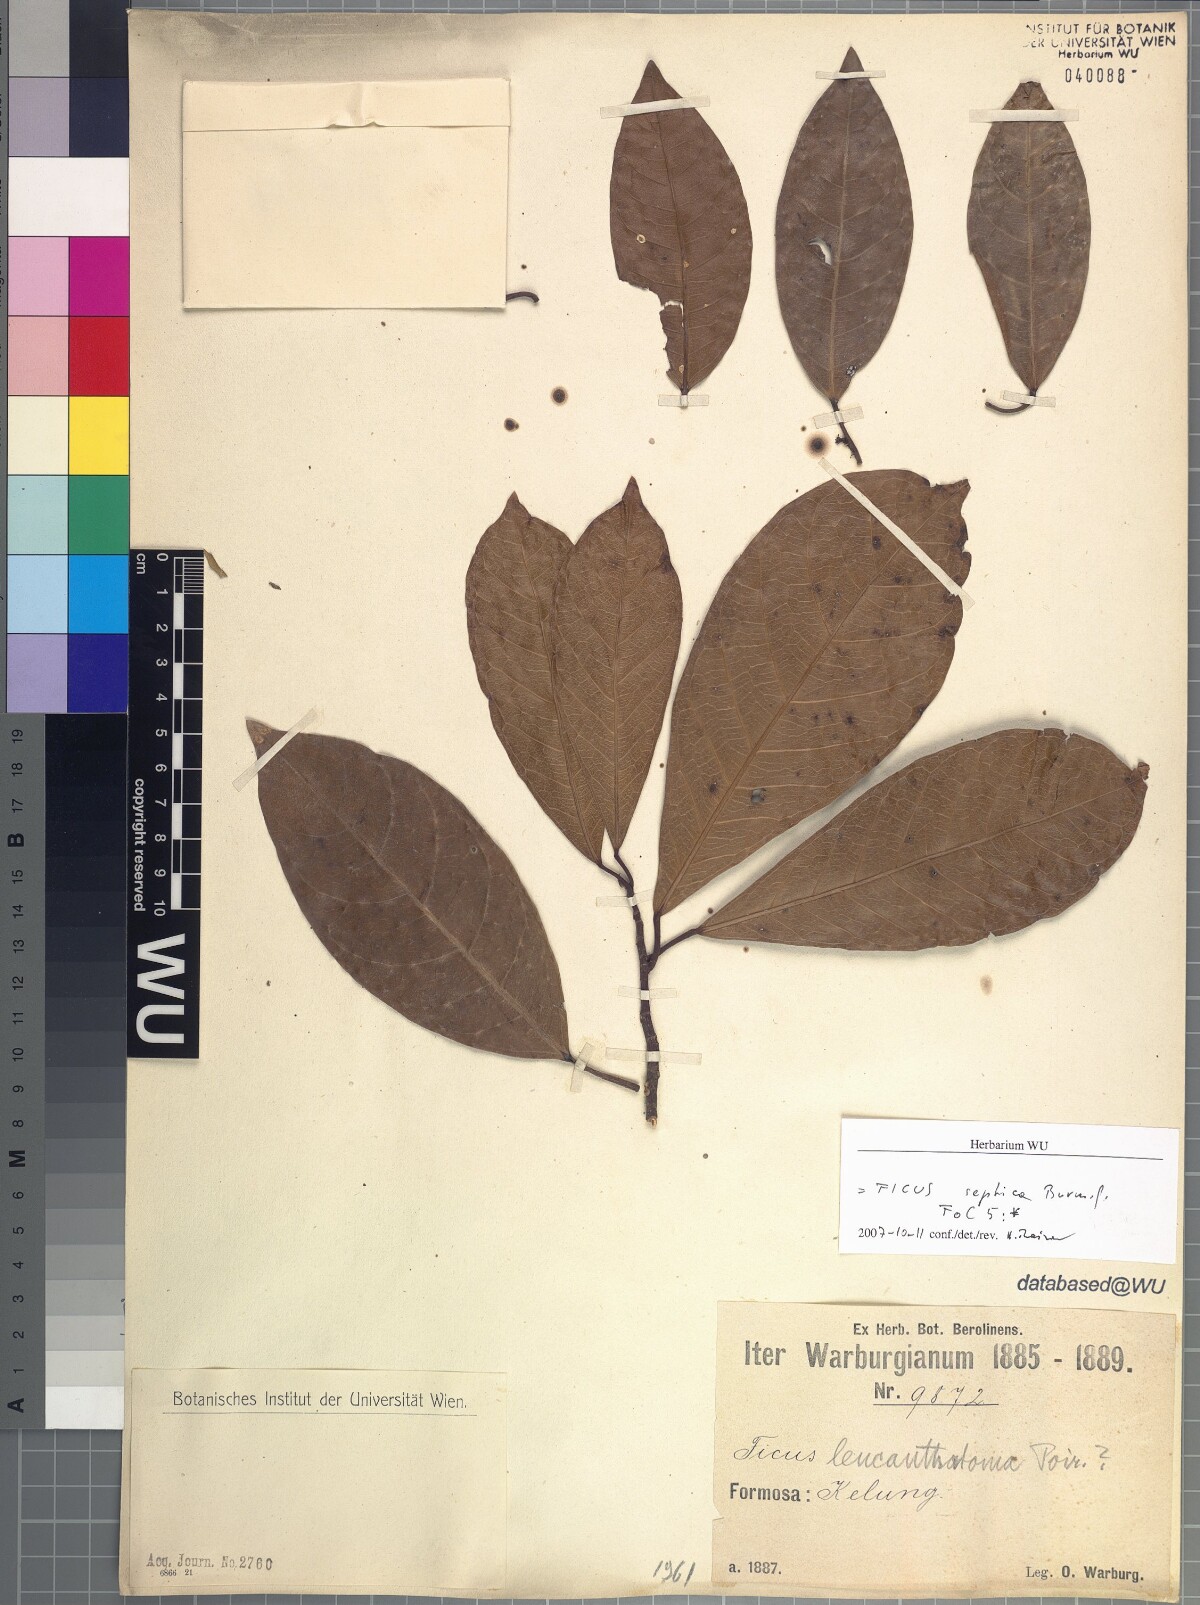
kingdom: Plantae
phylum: Tracheophyta
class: Magnoliopsida
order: Rosales
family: Moraceae
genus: Ficus
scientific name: Ficus septica
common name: Septic fig
